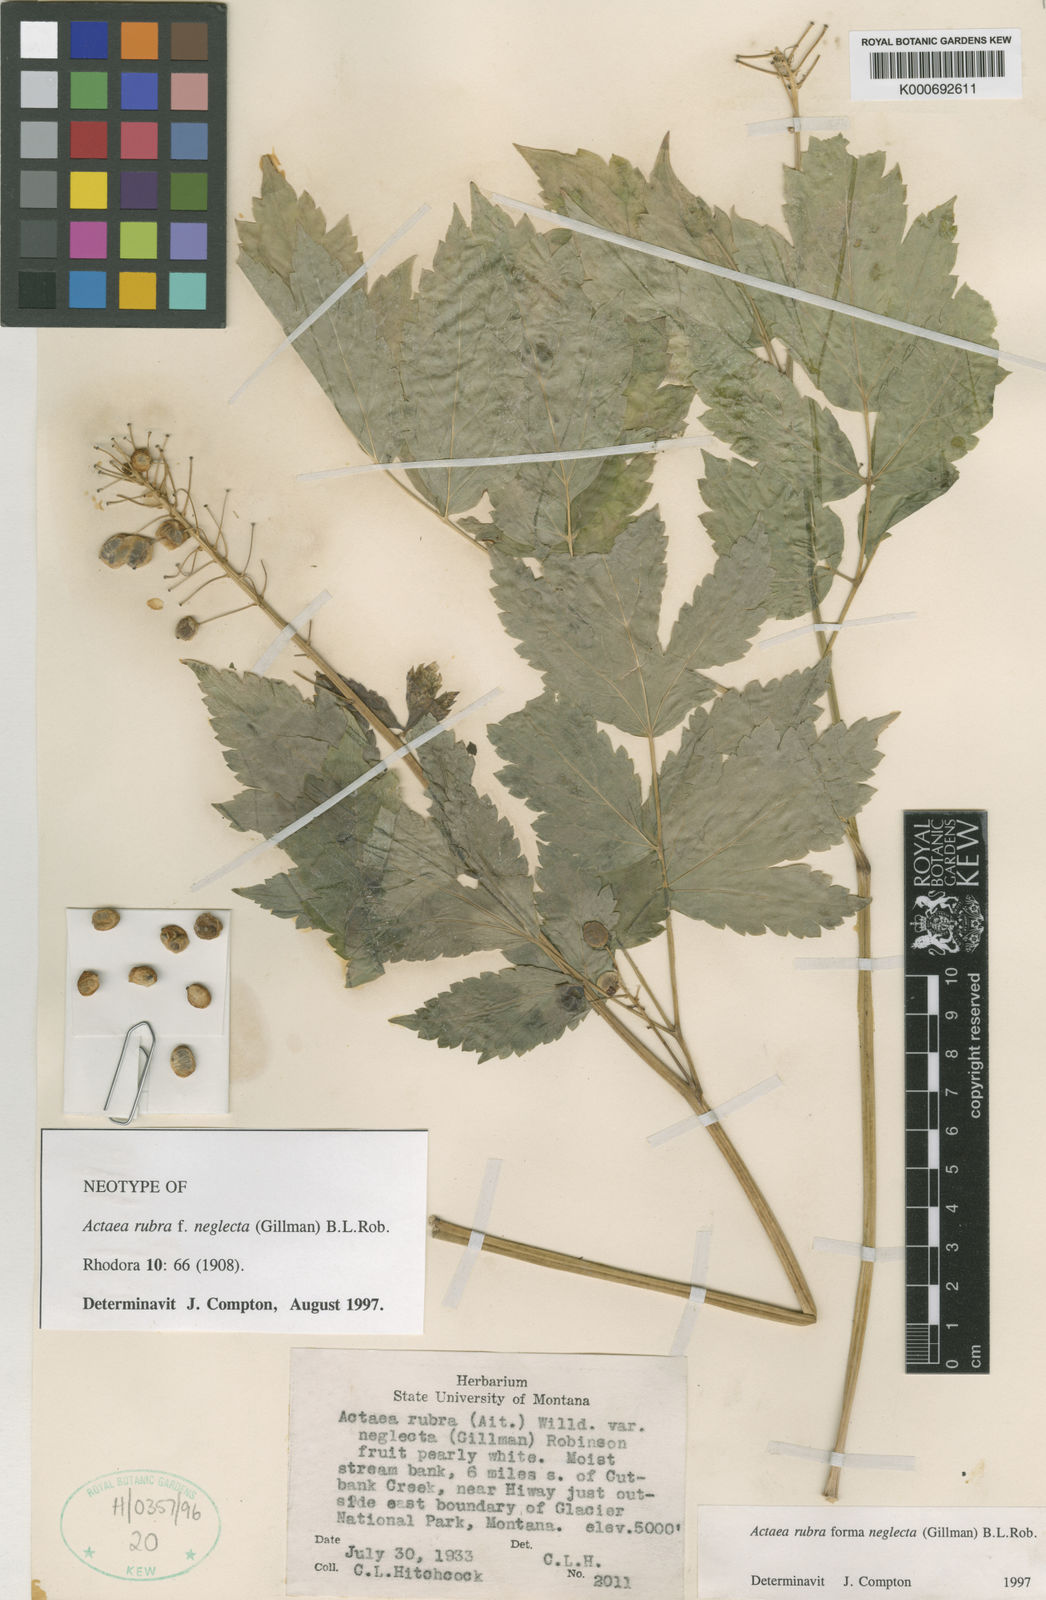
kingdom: Plantae
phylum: Tracheophyta
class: Magnoliopsida
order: Ranunculales
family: Ranunculaceae
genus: Actaea
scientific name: Actaea rubra
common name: Red baneberry
